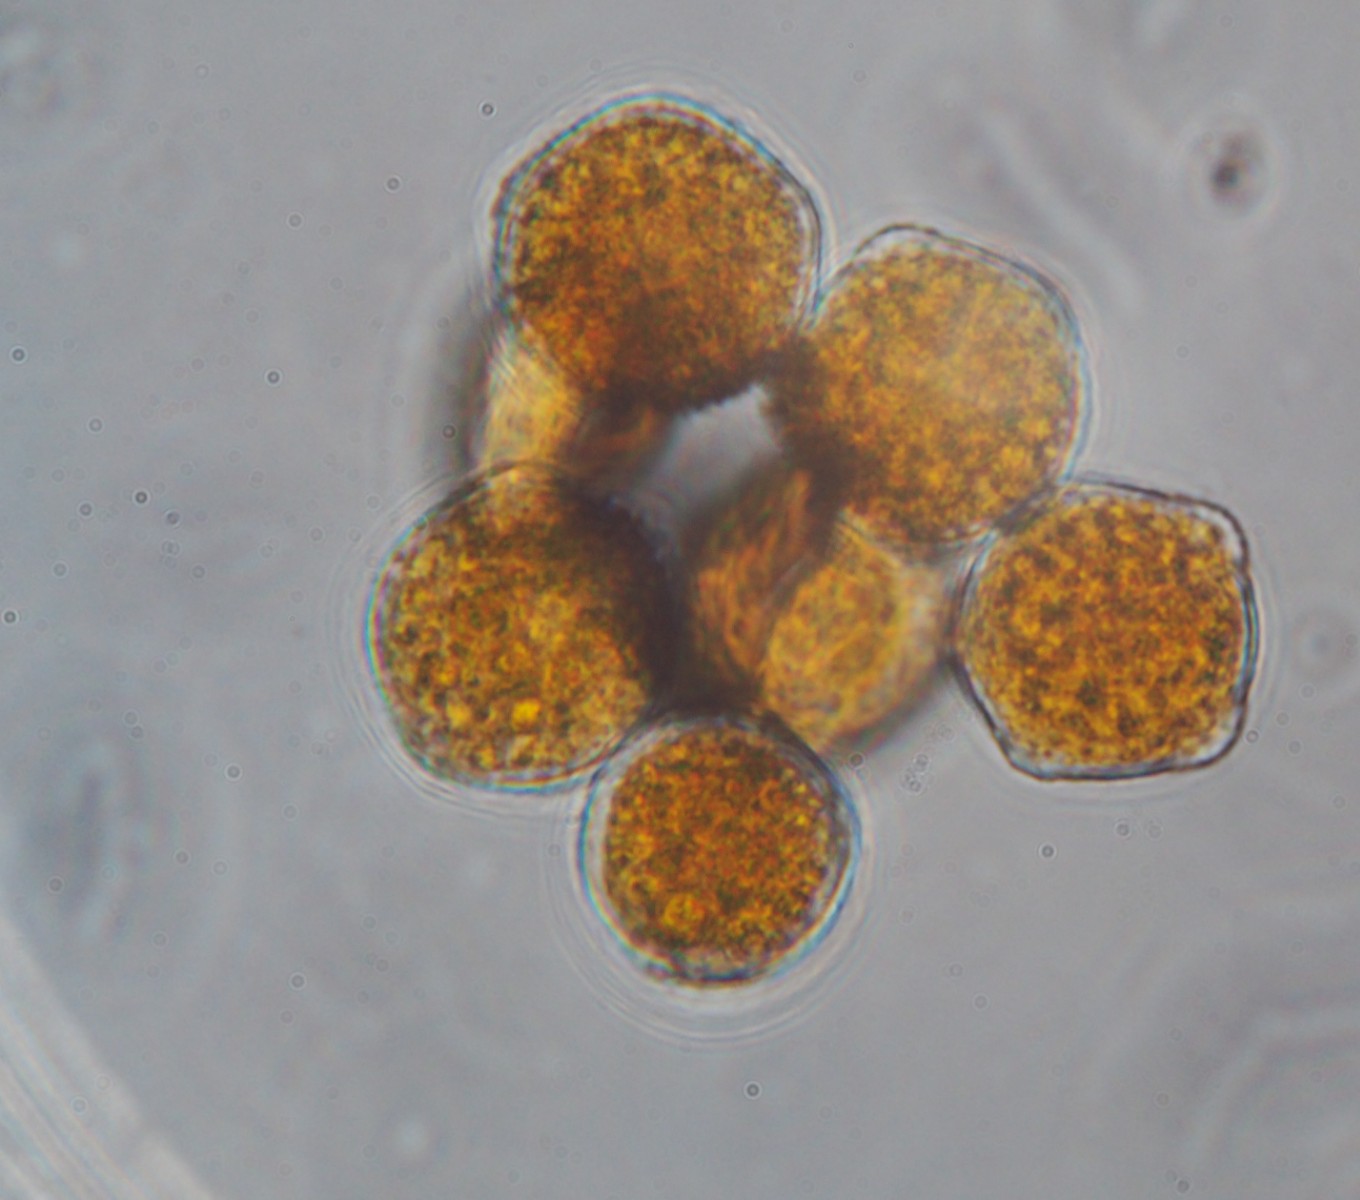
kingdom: Fungi
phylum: Basidiomycota
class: Pucciniomycetes
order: Pucciniales
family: Phragmidiaceae
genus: Phragmidium
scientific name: Phragmidium tuberculatum
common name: Rose rust
